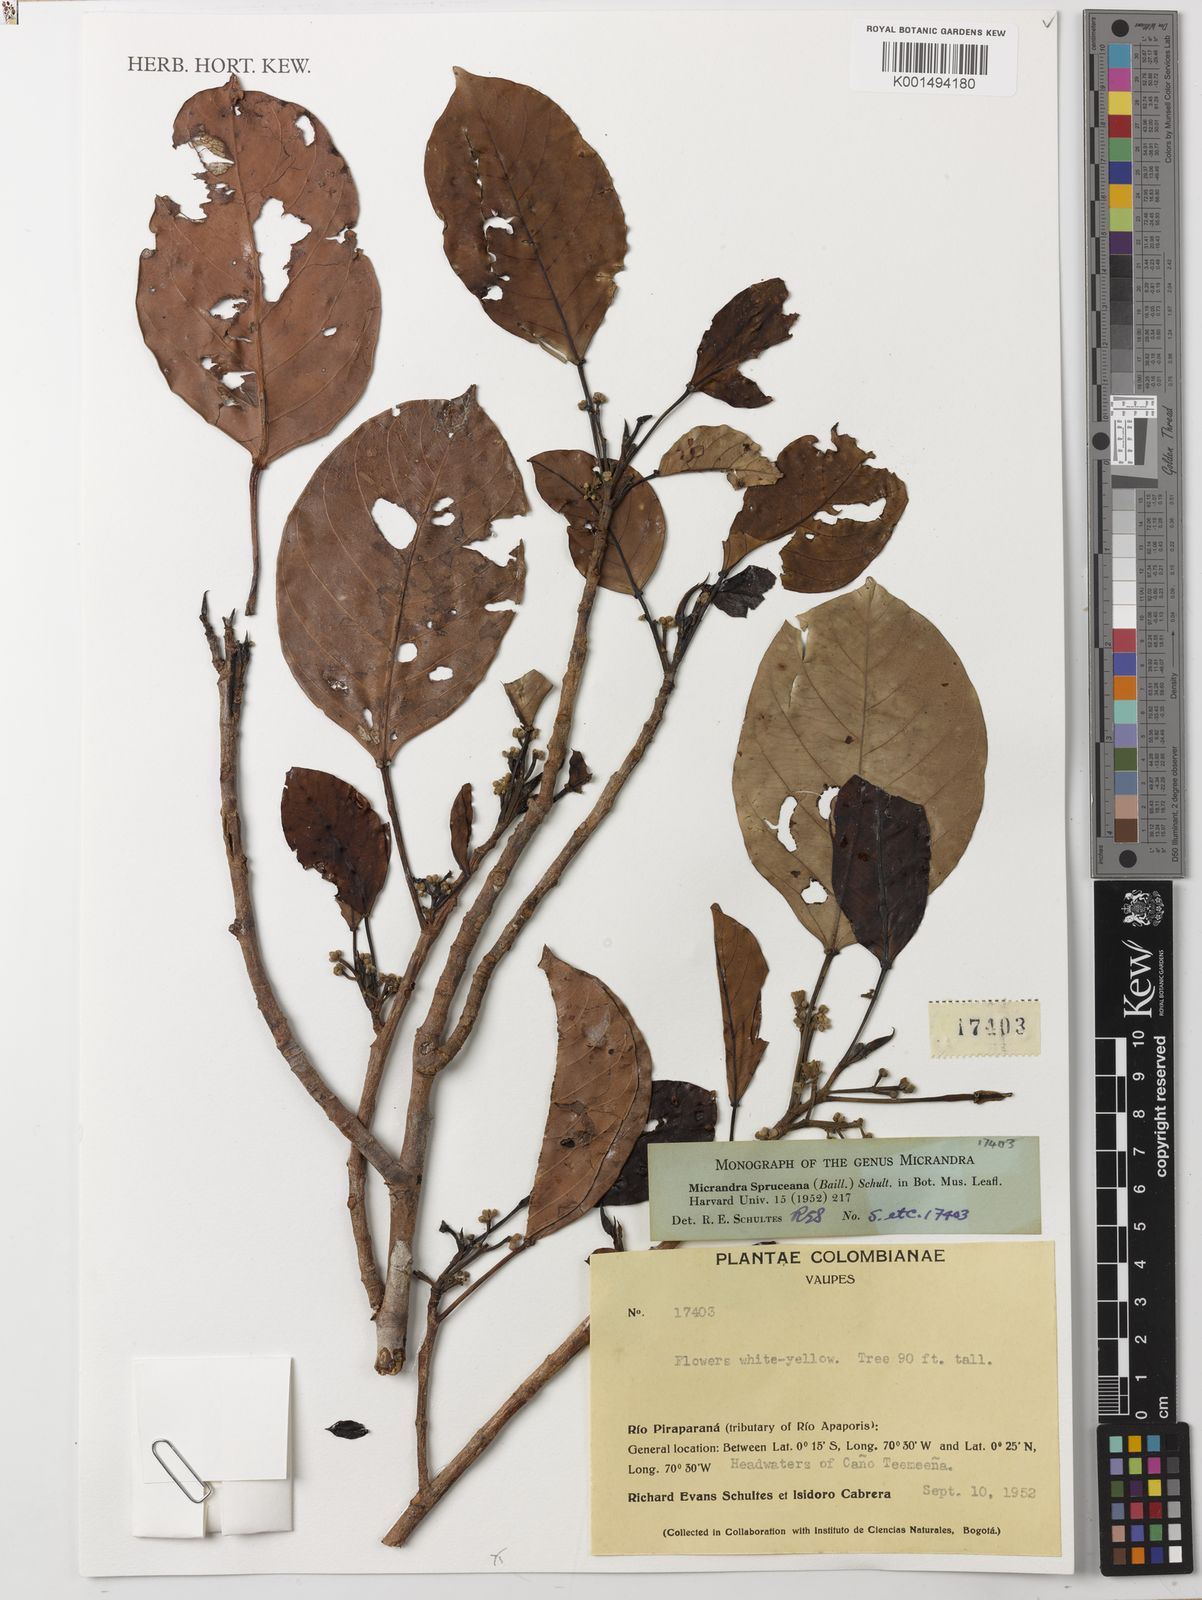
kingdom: Plantae
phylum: Tracheophyta
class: Magnoliopsida
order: Malpighiales
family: Euphorbiaceae
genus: Micrandra
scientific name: Micrandra spruceana
